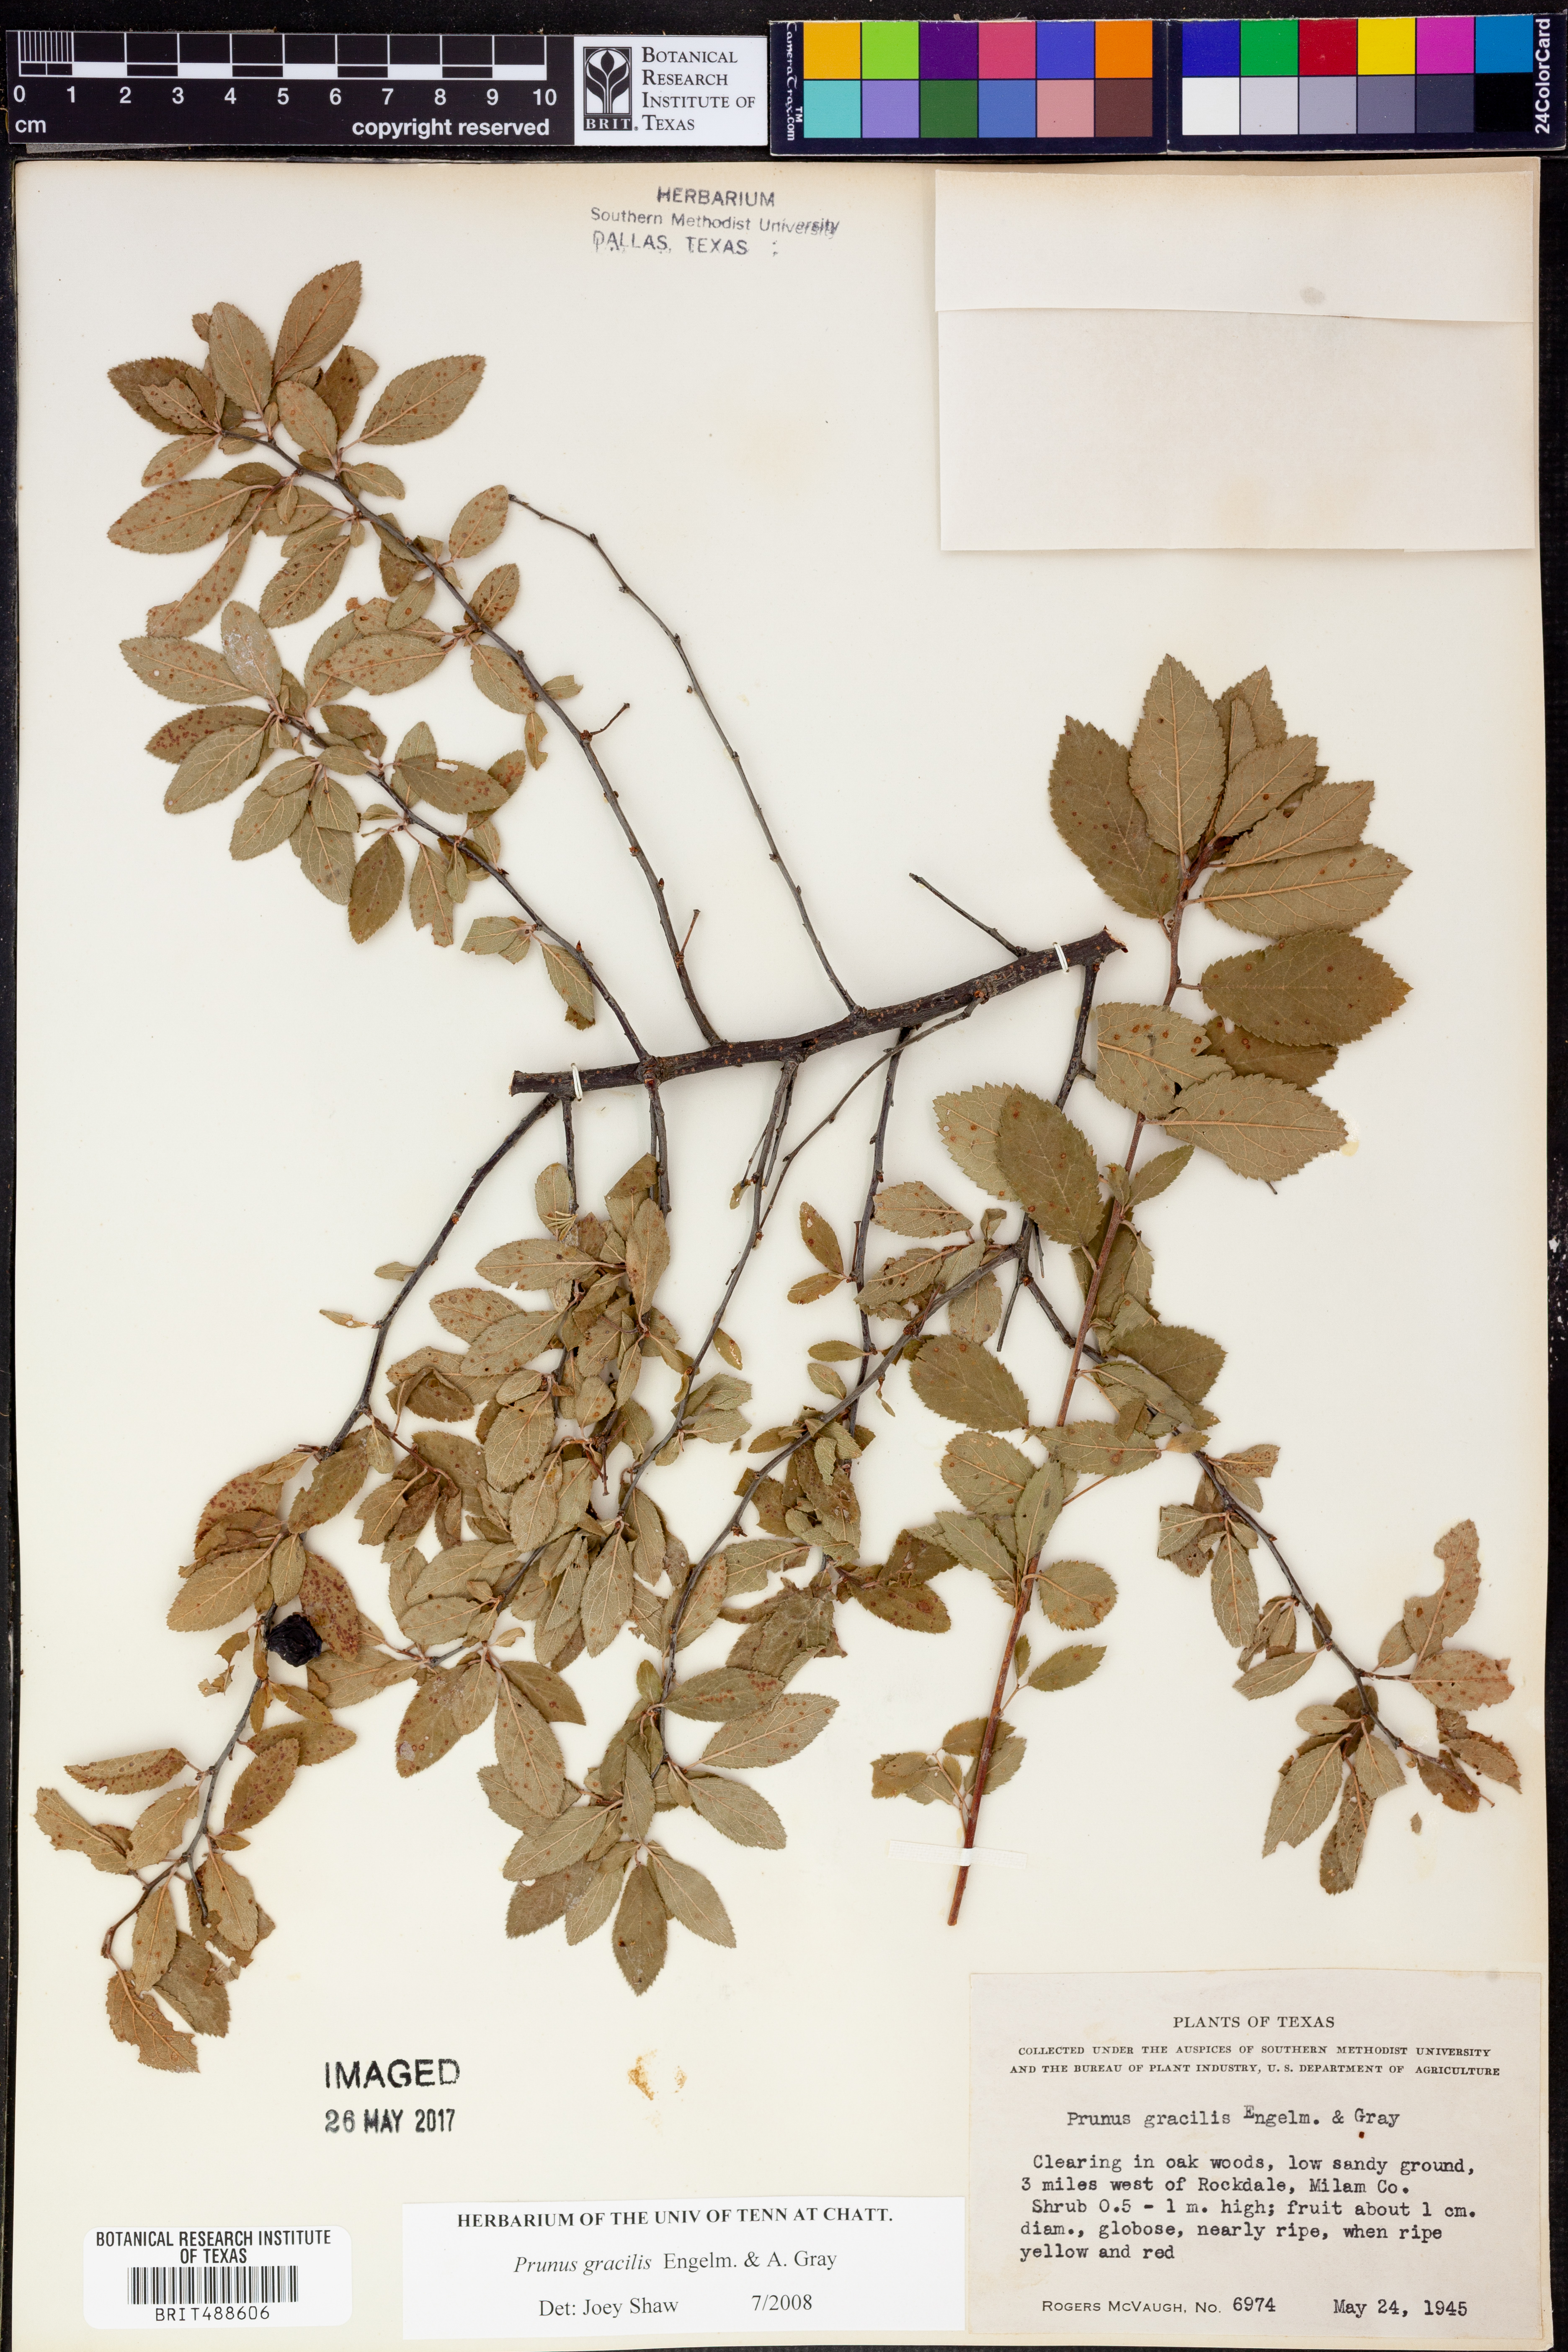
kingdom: Plantae
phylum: Tracheophyta
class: Magnoliopsida
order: Rosales
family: Rosaceae
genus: Prunus
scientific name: Prunus gracilis
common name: Oklahoma plum
